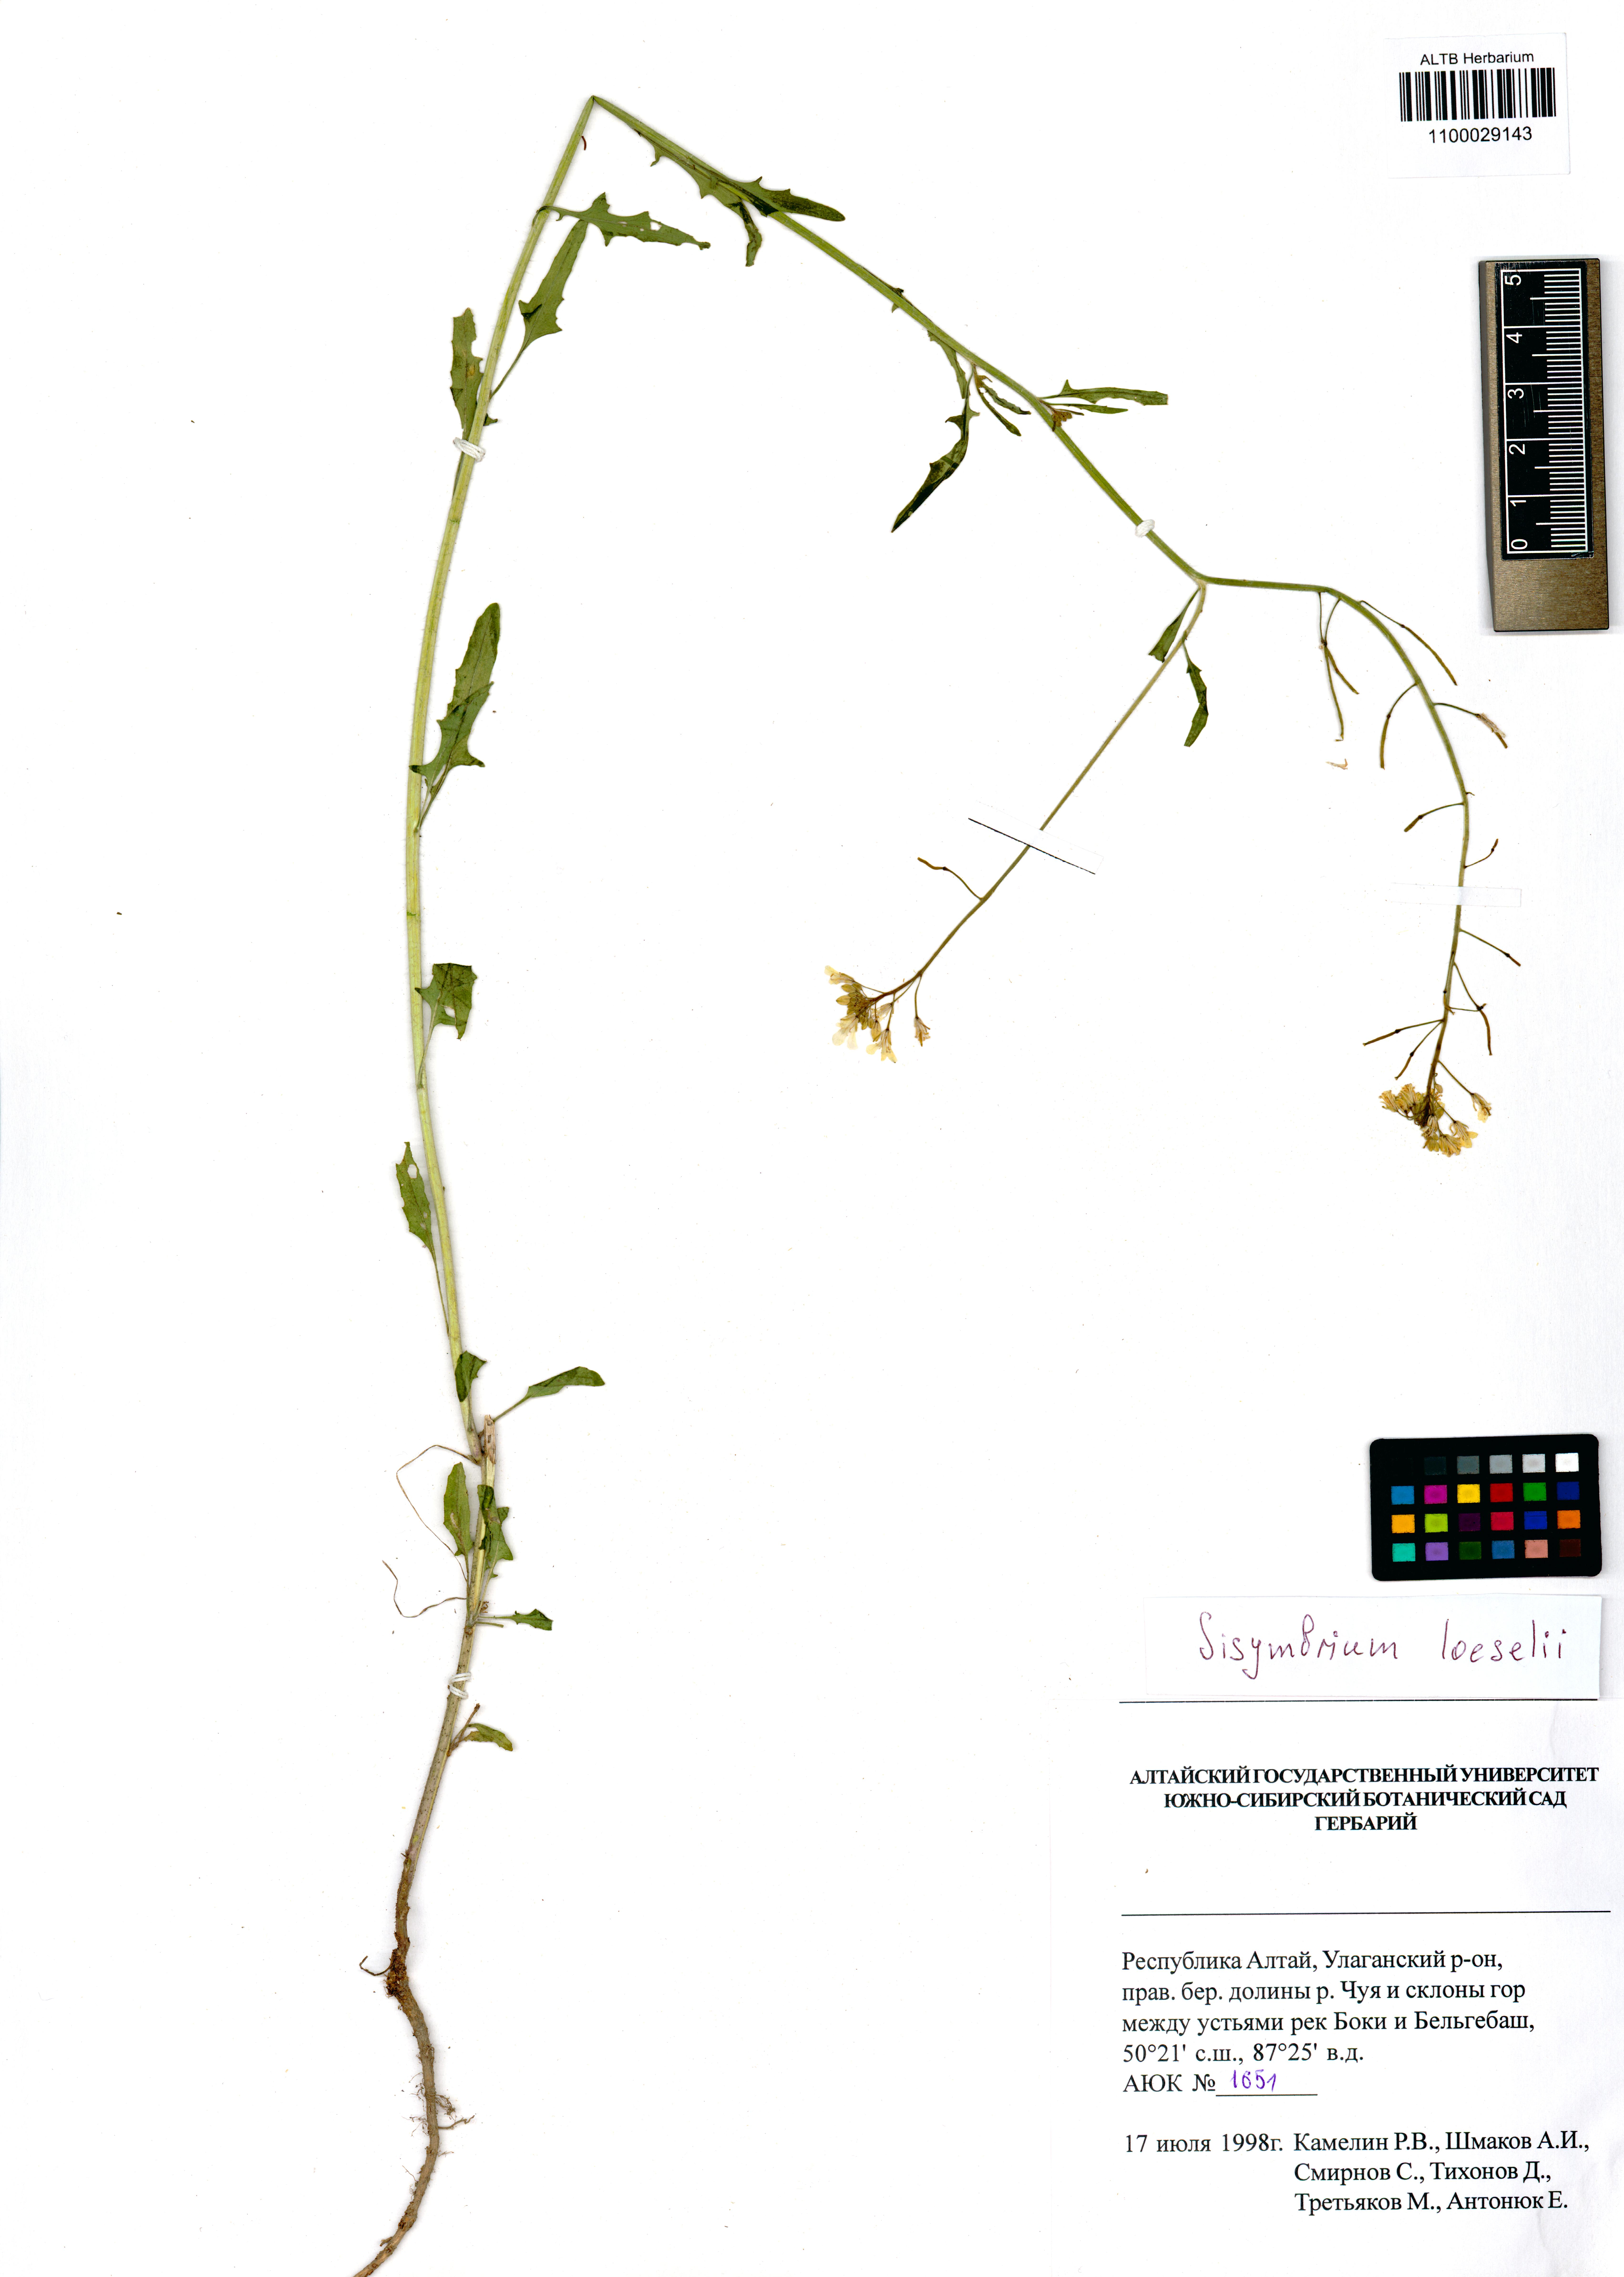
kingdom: Plantae
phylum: Tracheophyta
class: Magnoliopsida
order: Brassicales
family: Brassicaceae
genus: Sisymbrium
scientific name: Sisymbrium loeselii
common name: False london-rocket
